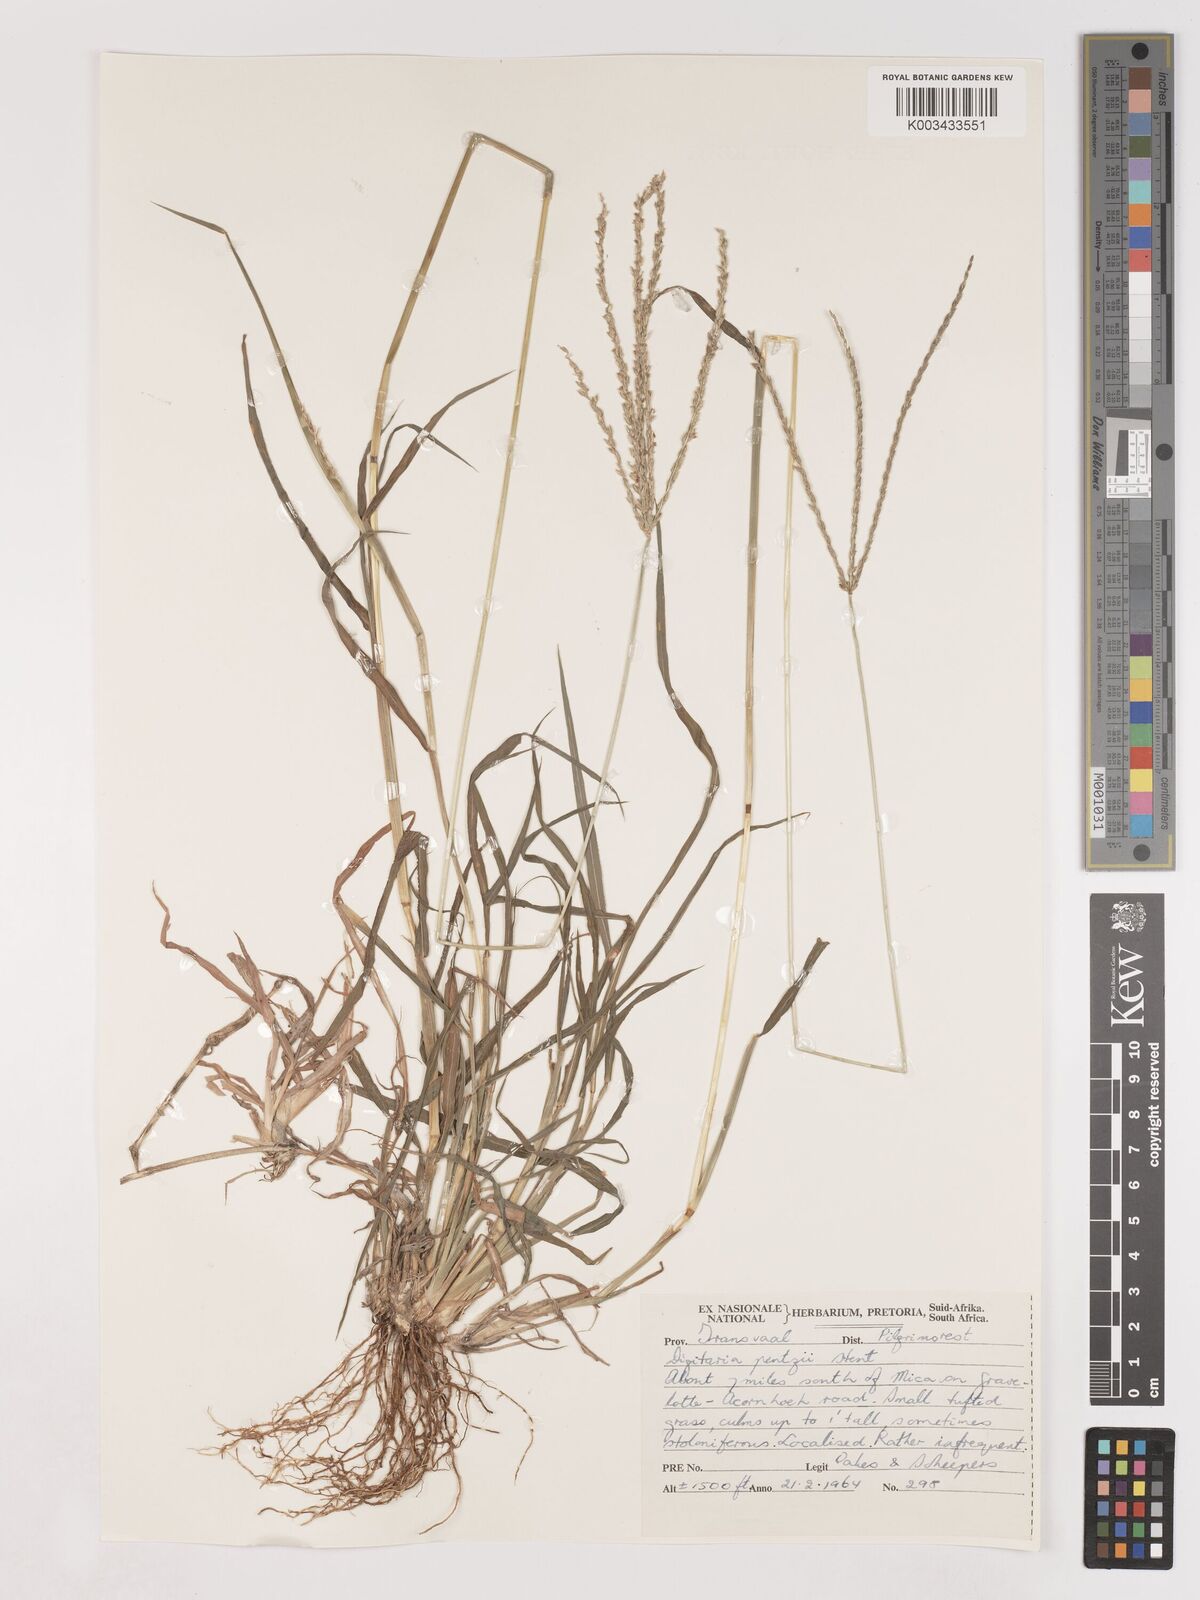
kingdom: Plantae
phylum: Tracheophyta
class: Liliopsida
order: Poales
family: Poaceae
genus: Digitaria
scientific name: Digitaria eriantha
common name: Digitgrass
